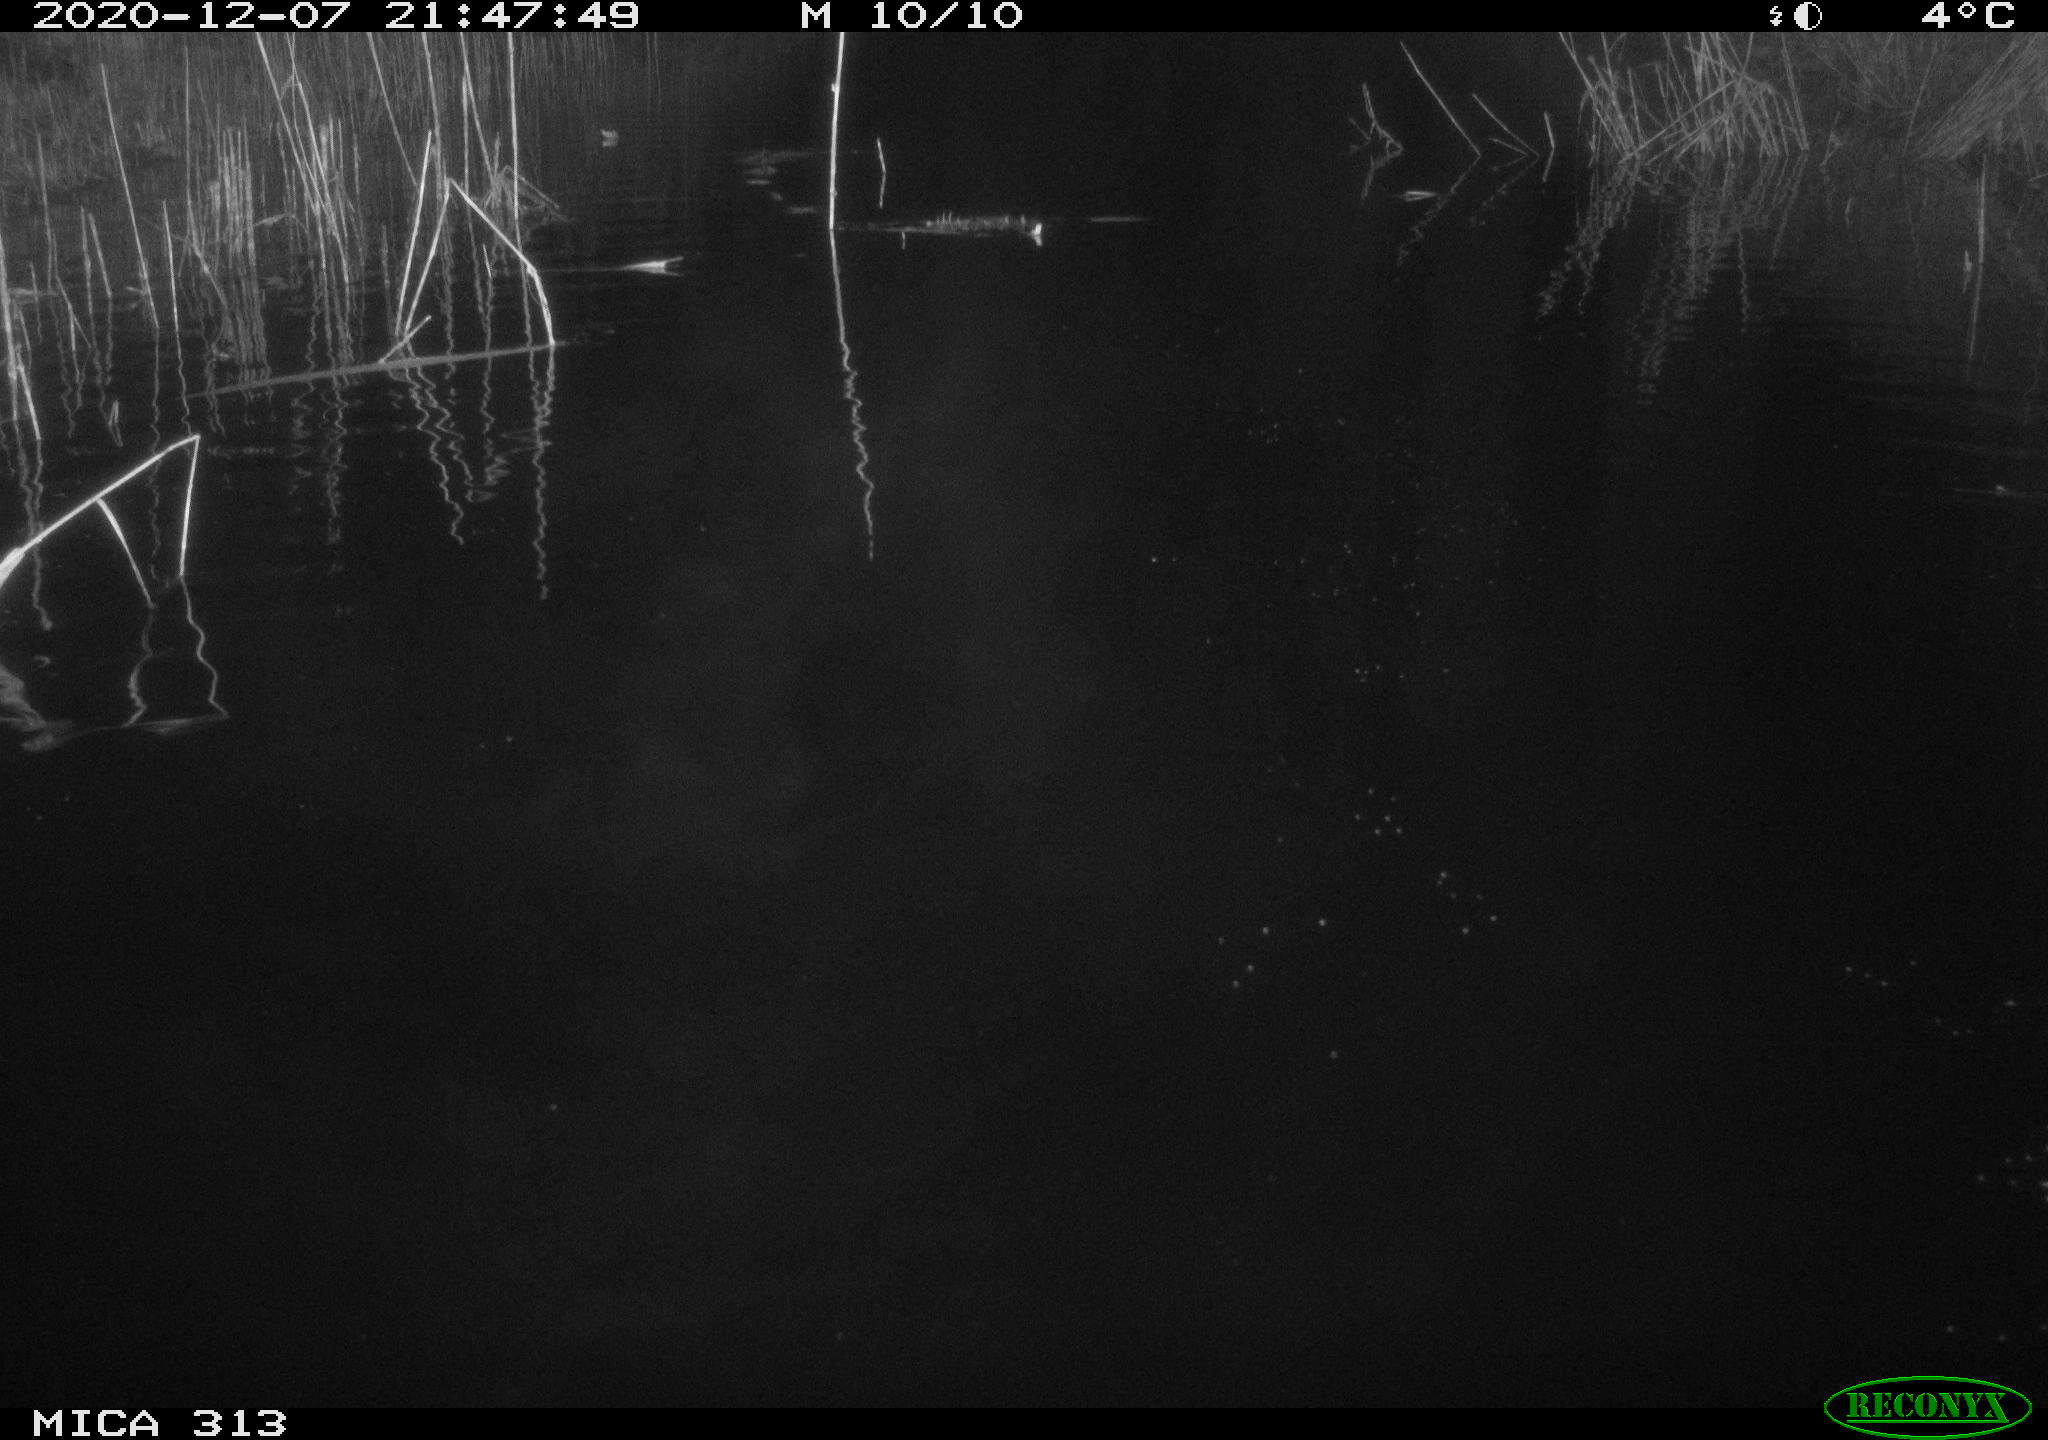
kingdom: Animalia
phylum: Chordata
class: Mammalia
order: Rodentia
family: Muridae
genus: Rattus
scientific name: Rattus norvegicus
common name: Brown rat
